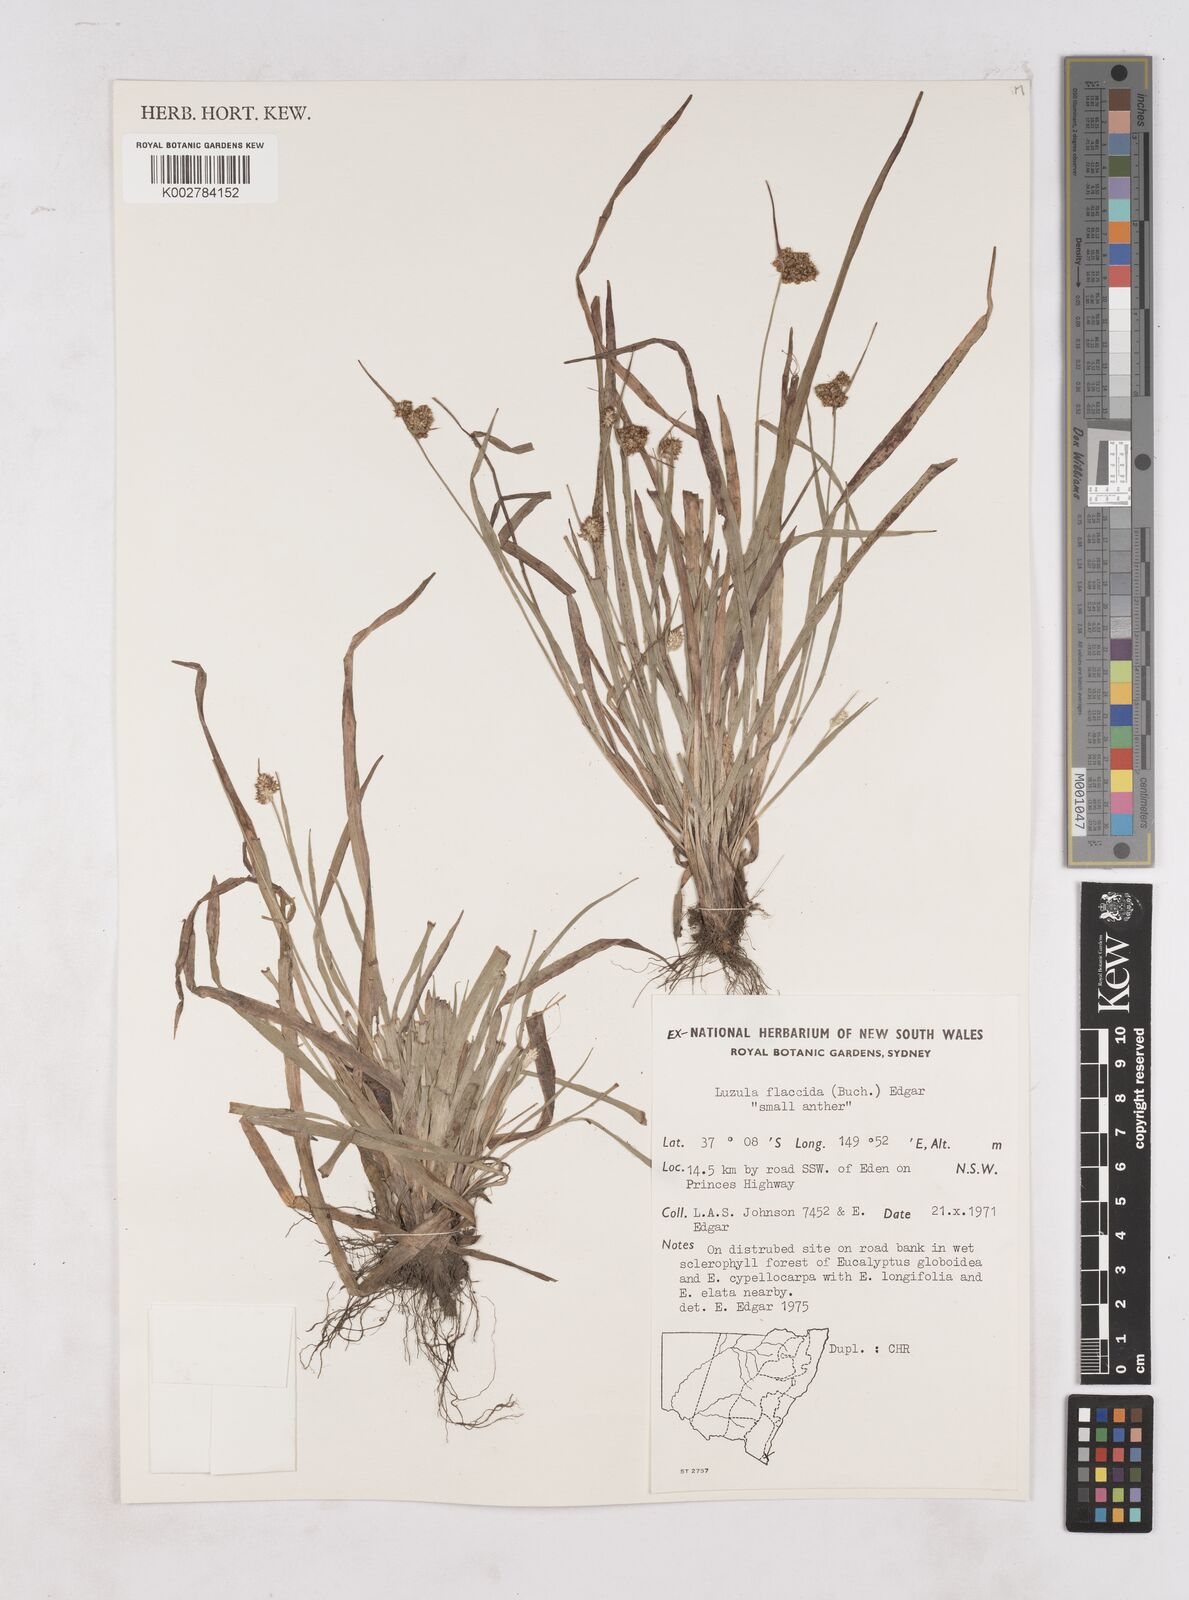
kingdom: Plantae
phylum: Tracheophyta
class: Liliopsida
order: Poales
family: Juncaceae
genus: Luzula
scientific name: Luzula atrata
